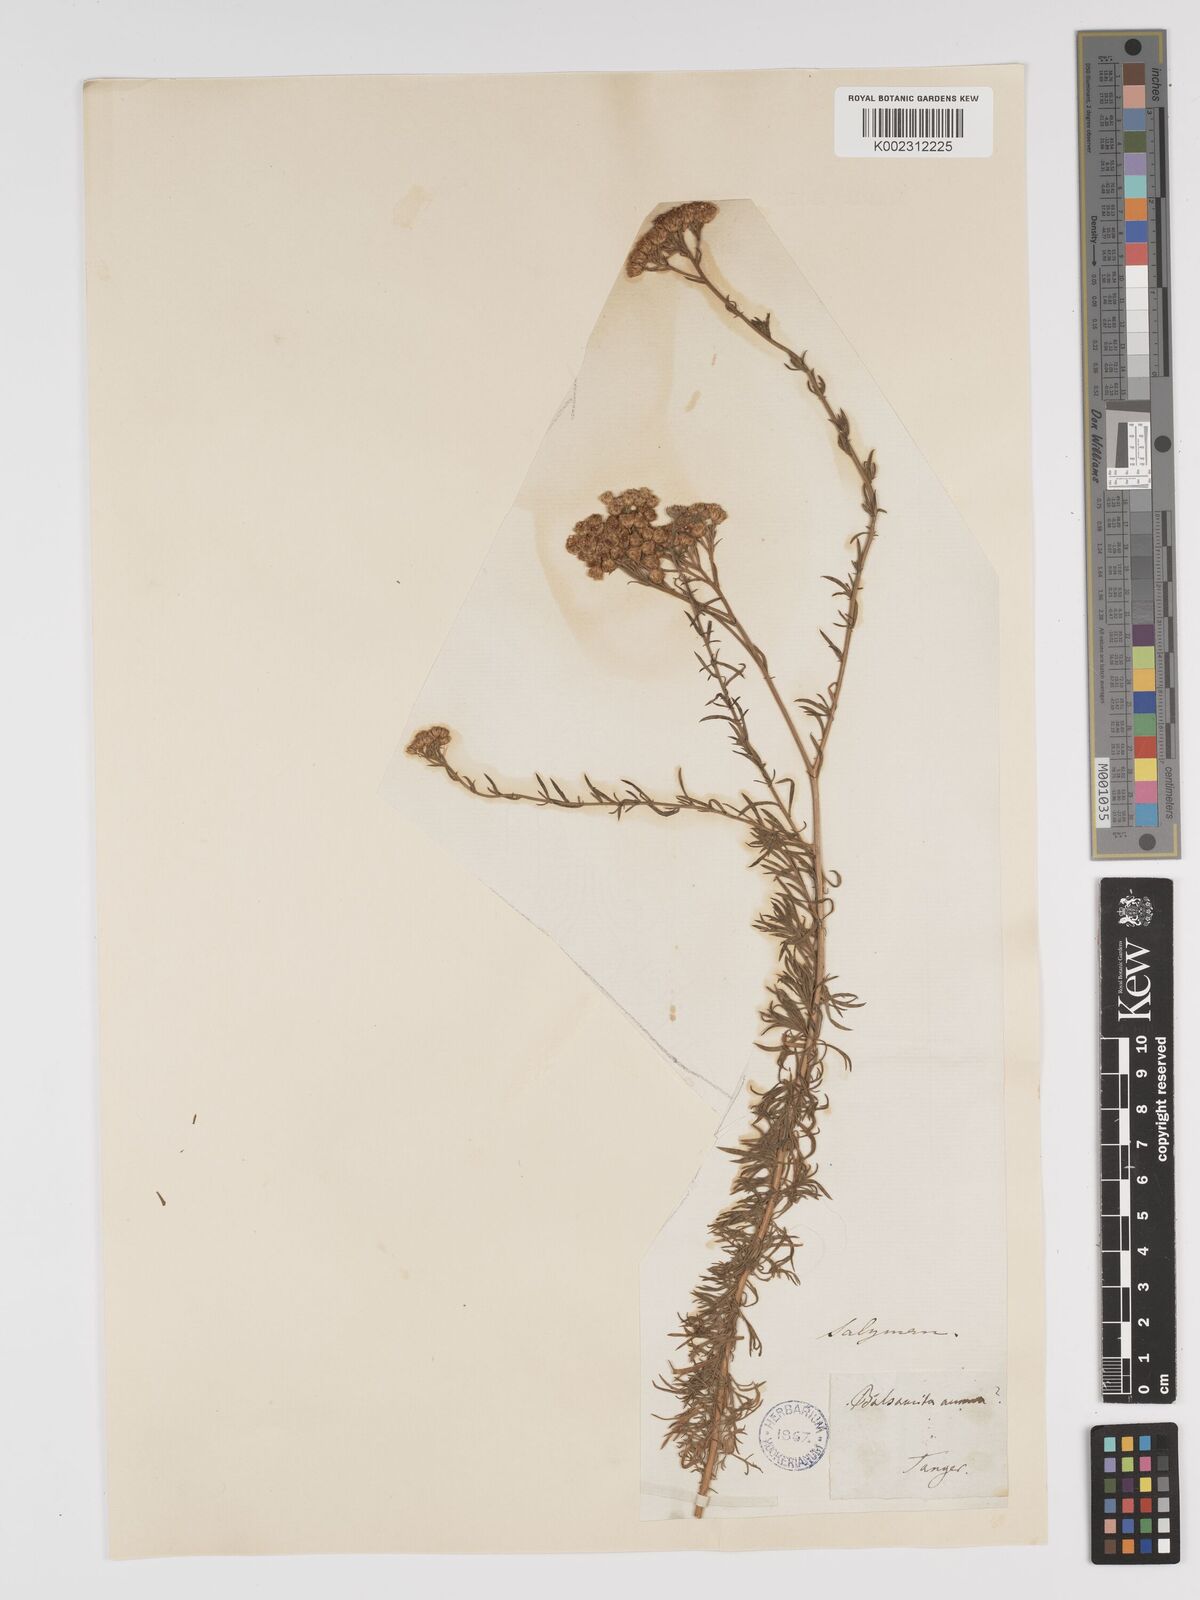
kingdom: Plantae
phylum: Tracheophyta
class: Magnoliopsida
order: Asterales
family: Asteraceae
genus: Vogtia
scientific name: Vogtia annua
